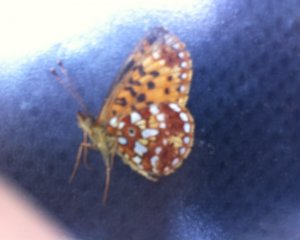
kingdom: Animalia
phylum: Arthropoda
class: Insecta
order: Lepidoptera
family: Nymphalidae
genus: Boloria
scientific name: Boloria selene
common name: Silver-bordered Fritillary
